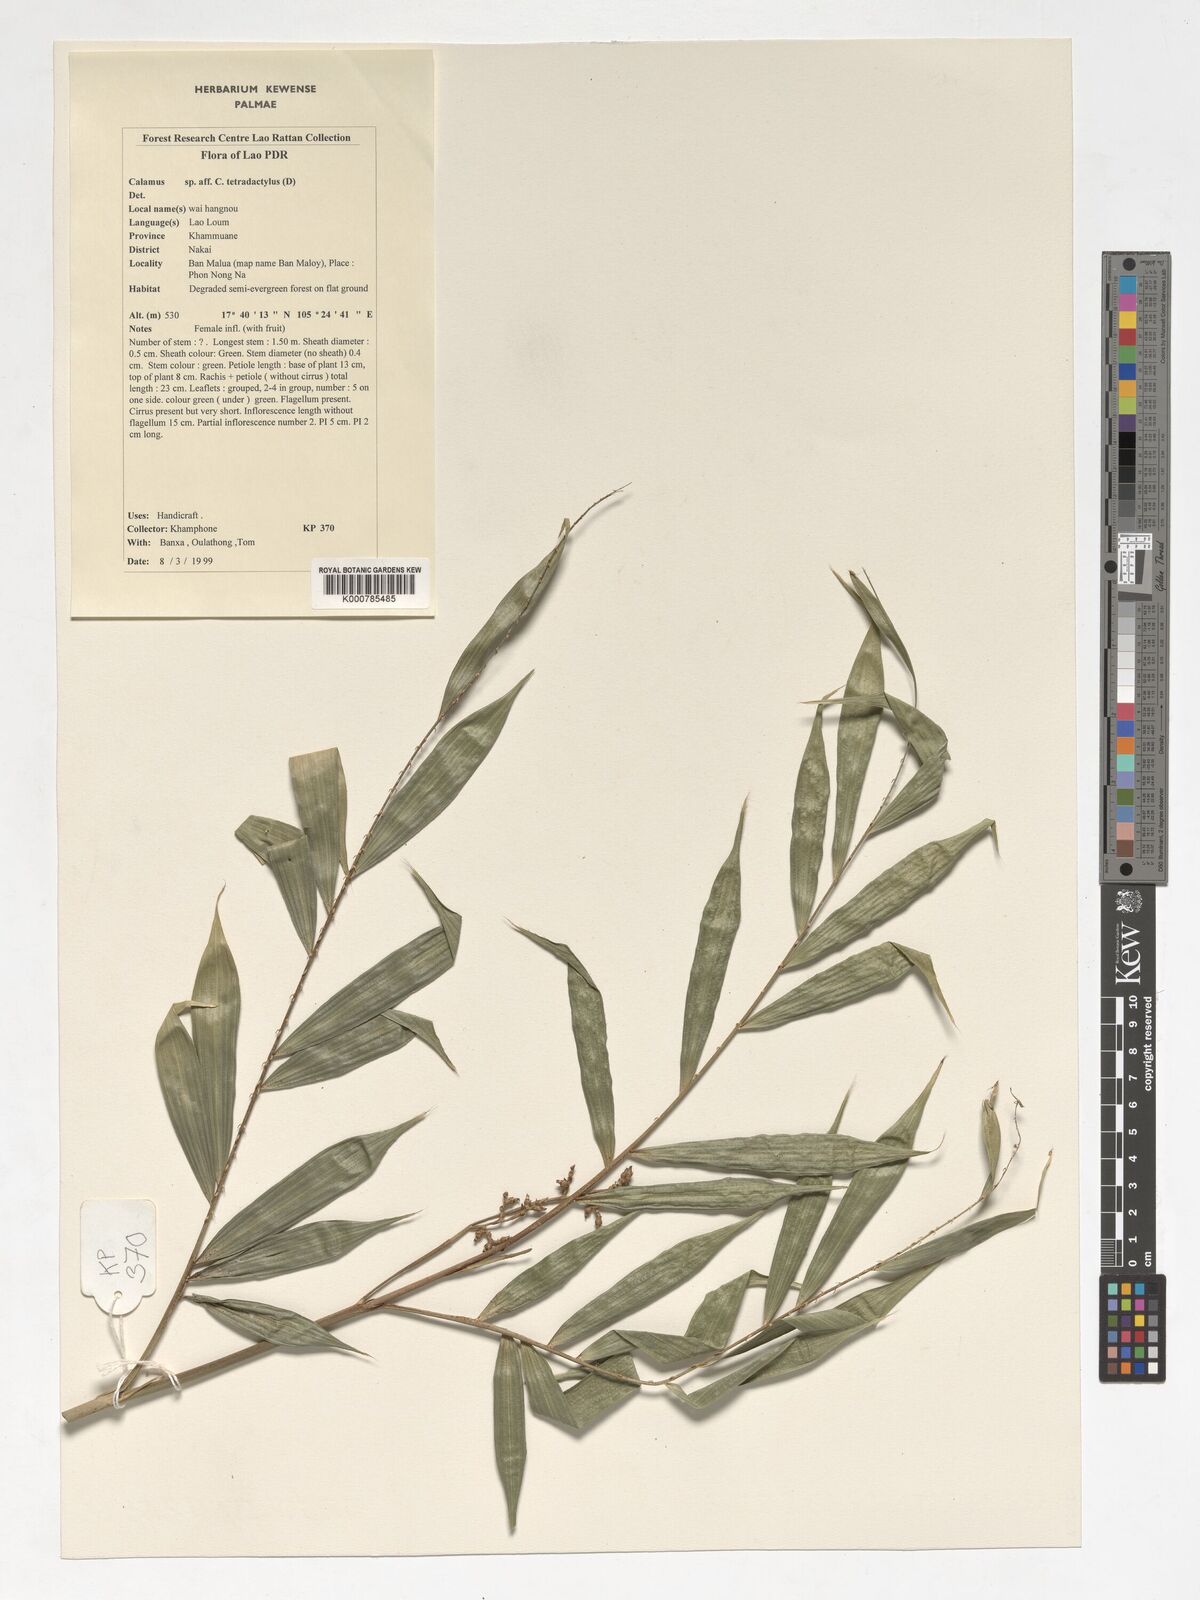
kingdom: Plantae
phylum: Tracheophyta
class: Liliopsida
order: Arecales
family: Arecaceae
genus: Calamus
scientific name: Calamus bimanifer
